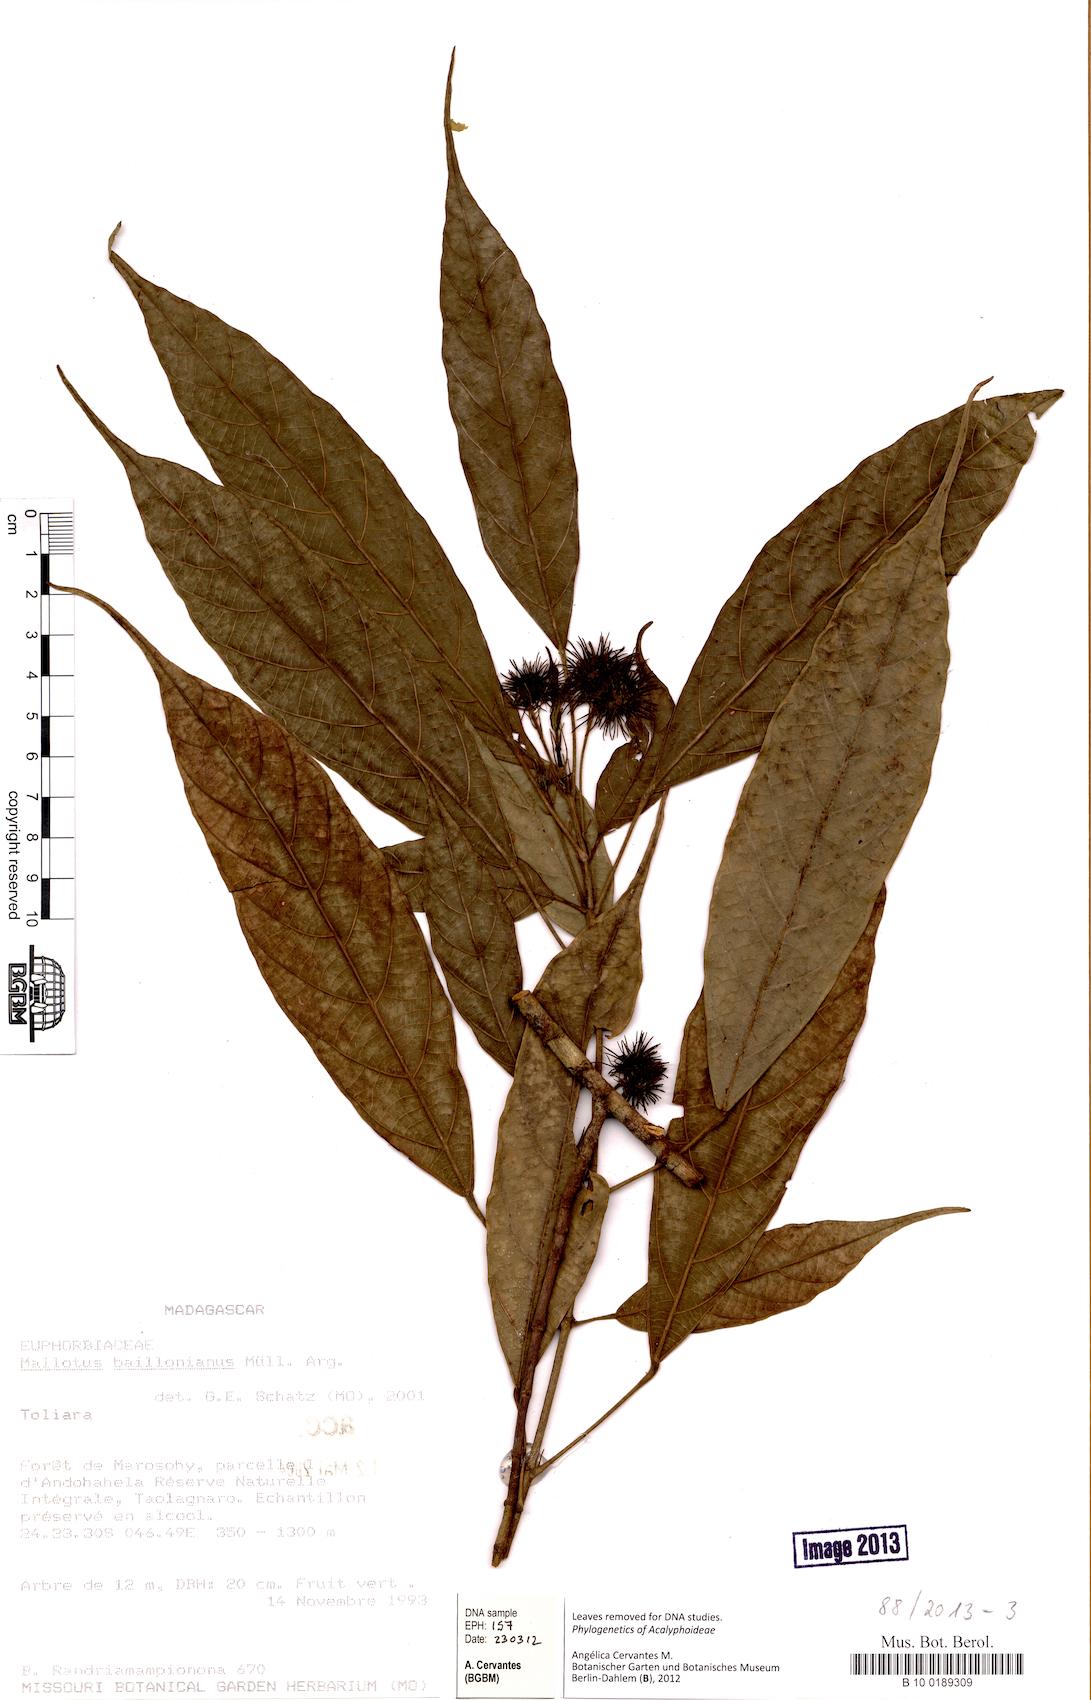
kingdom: Plantae
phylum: Tracheophyta
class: Magnoliopsida
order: Malpighiales
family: Euphorbiaceae
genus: Hancea
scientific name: Hancea acuminata
